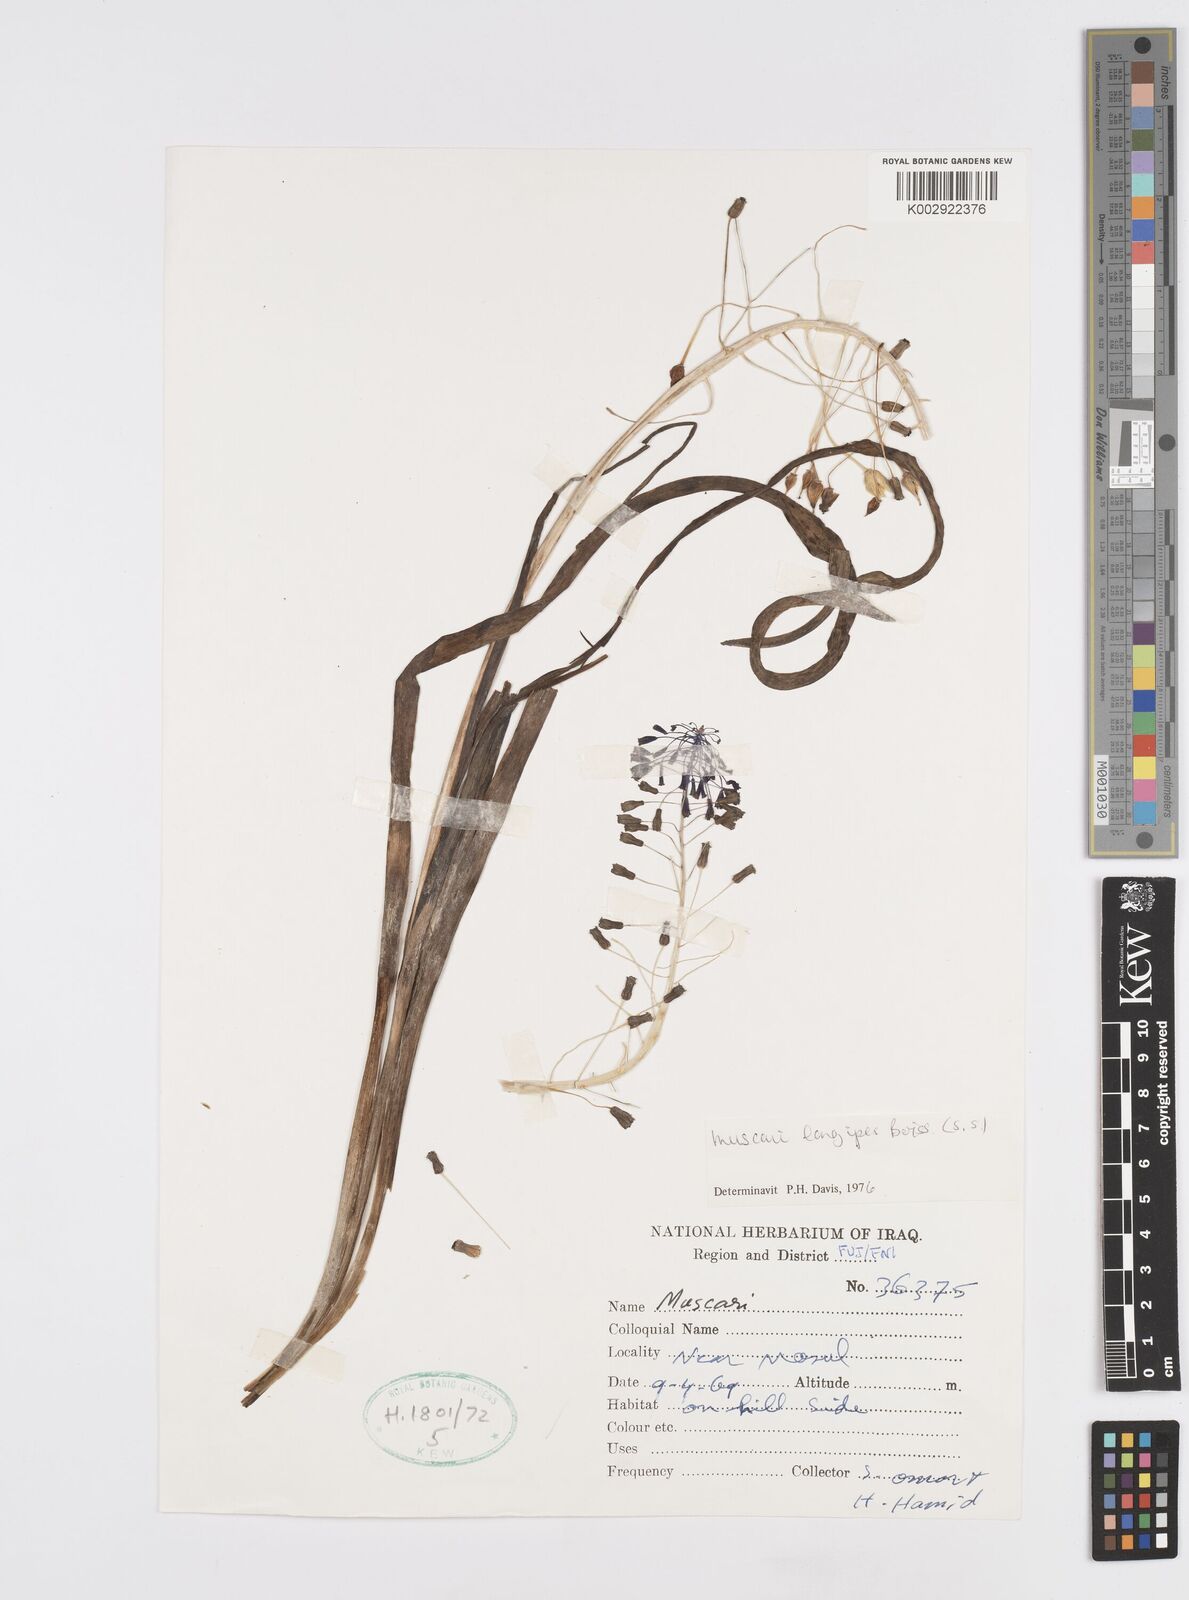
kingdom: Plantae
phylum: Tracheophyta
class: Liliopsida
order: Asparagales
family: Asparagaceae
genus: Muscari
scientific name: Muscari longipes
